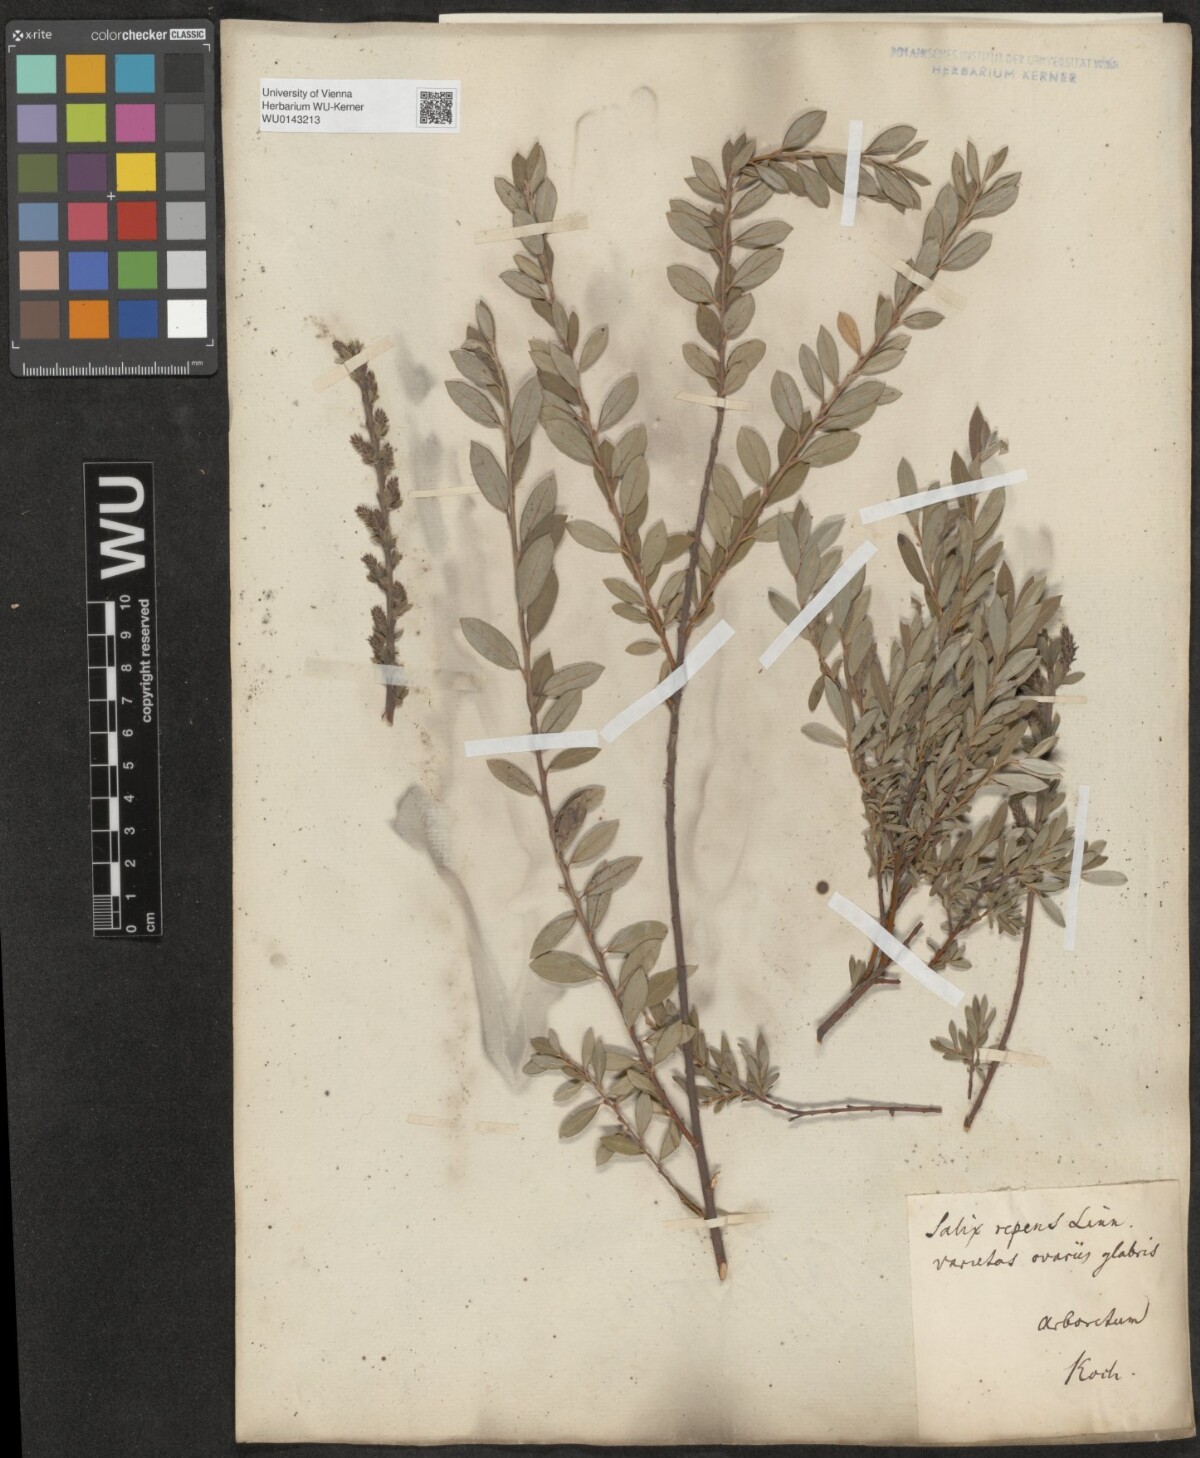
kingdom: Plantae
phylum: Tracheophyta
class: Magnoliopsida
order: Malpighiales
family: Salicaceae
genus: Salix
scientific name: Salix repens
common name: Creeping willow
